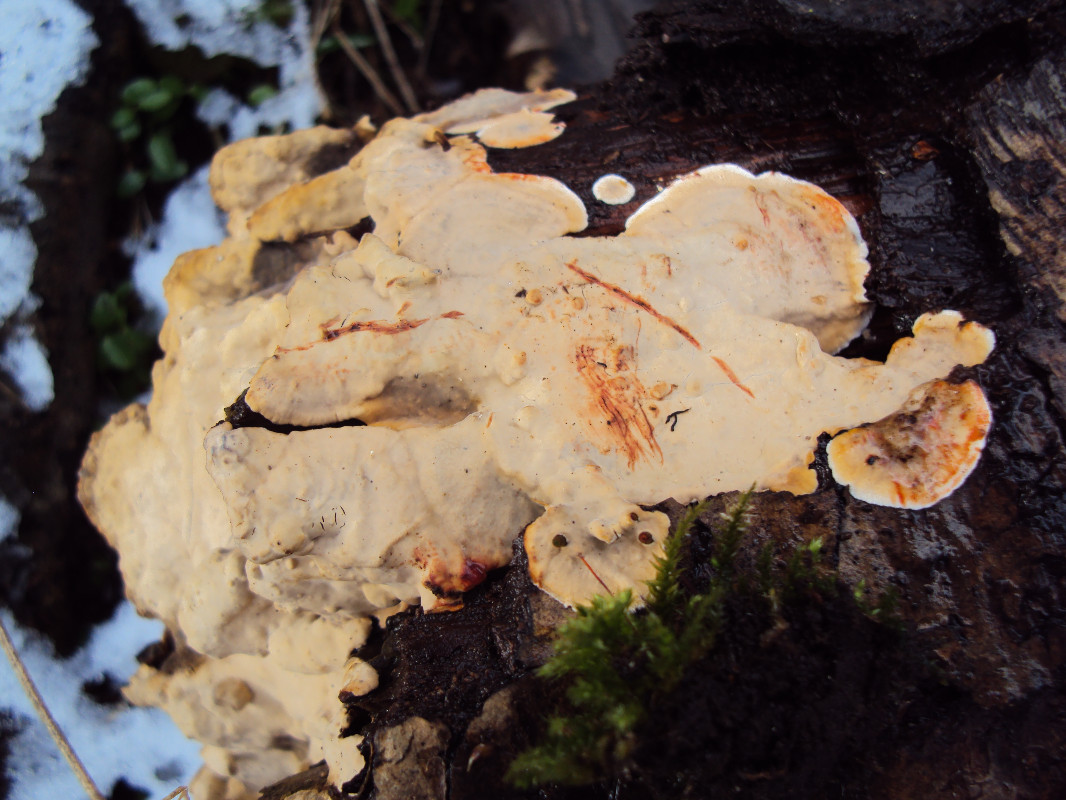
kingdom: Fungi
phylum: Basidiomycota
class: Agaricomycetes
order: Russulales
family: Stereaceae
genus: Stereum
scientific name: Stereum rugosum
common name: rynket lædersvamp
